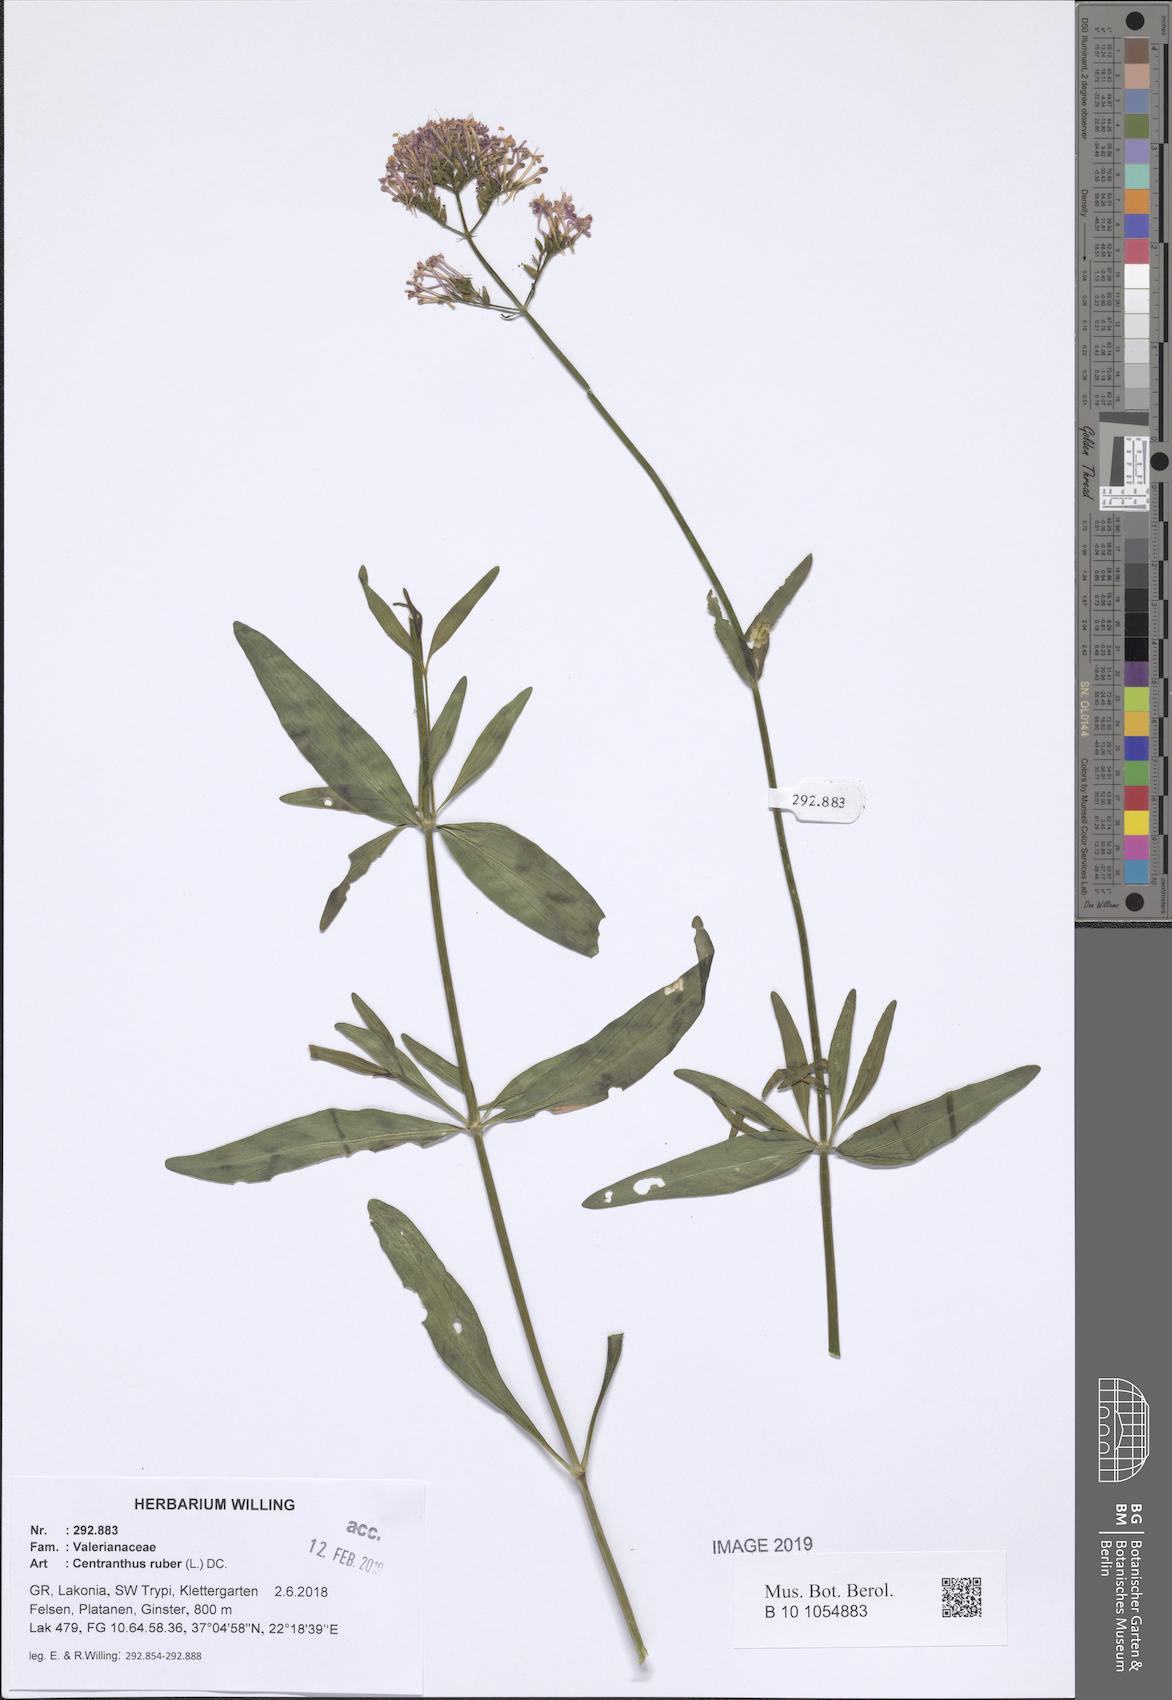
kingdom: Plantae
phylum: Tracheophyta
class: Magnoliopsida
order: Dipsacales
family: Caprifoliaceae
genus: Centranthus
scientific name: Centranthus ruber
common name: Red valerian
